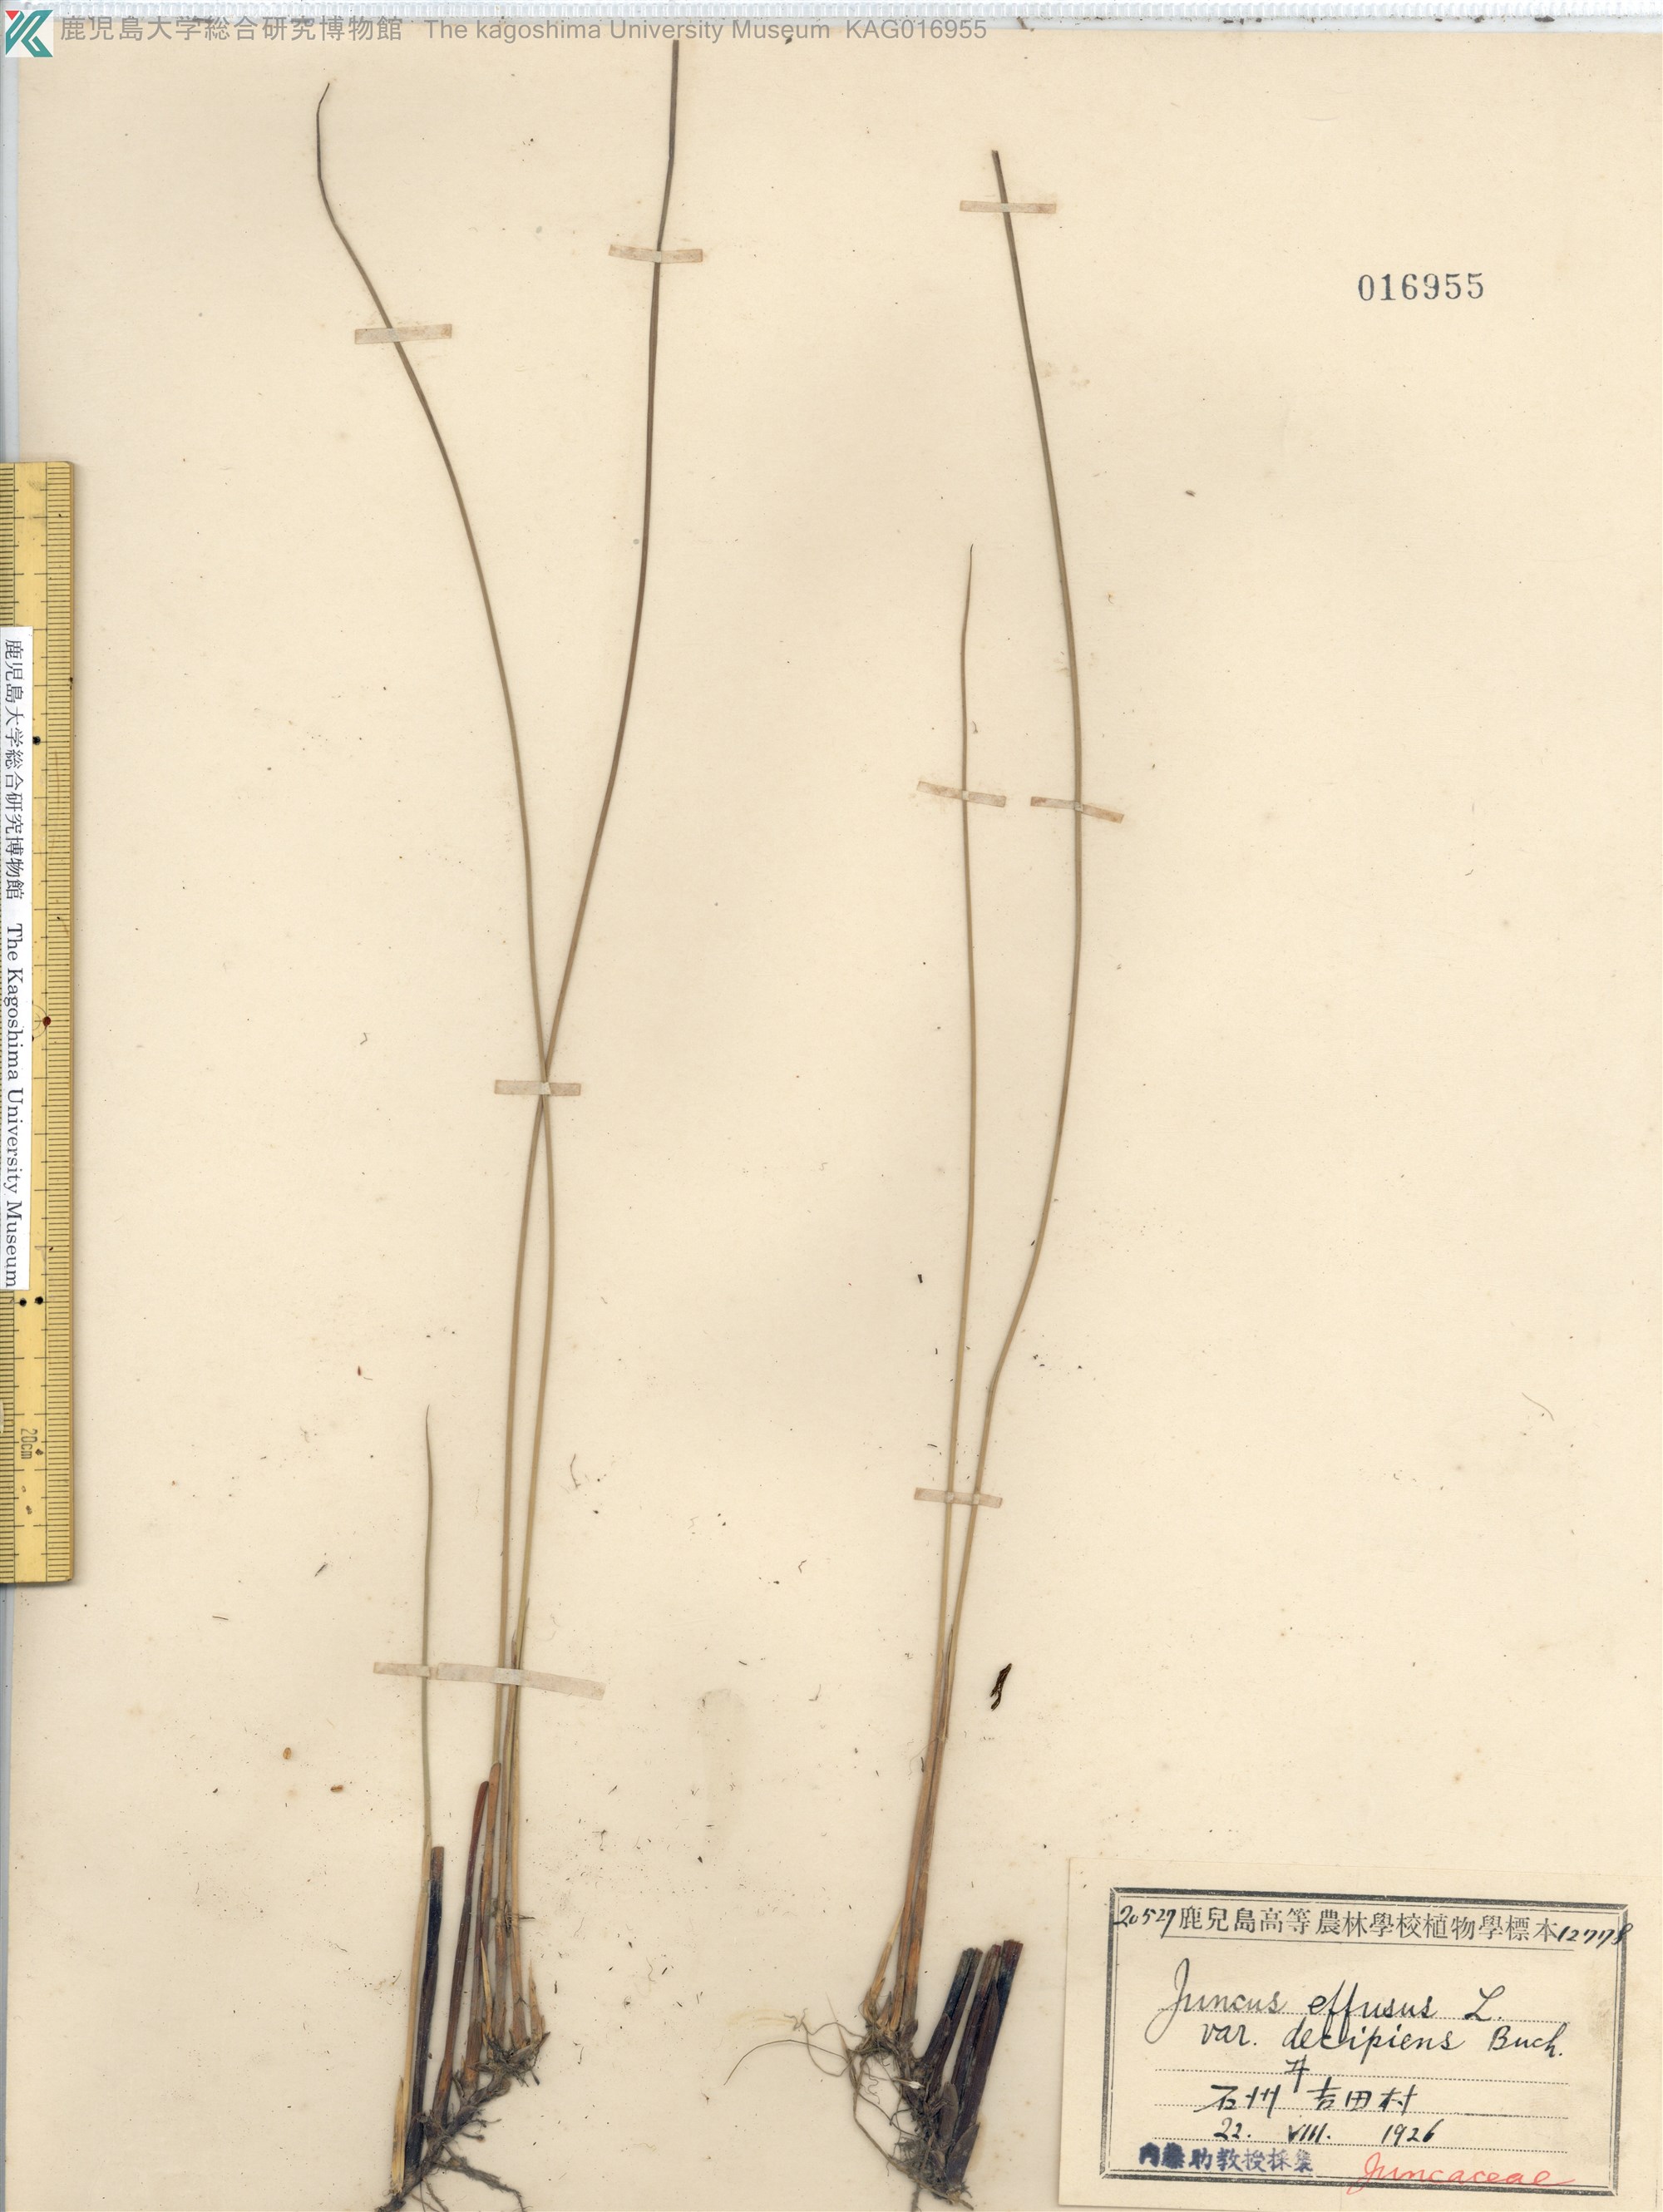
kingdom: Plantae
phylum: Tracheophyta
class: Liliopsida
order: Poales
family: Juncaceae
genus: Juncus
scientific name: Juncus decipiens
